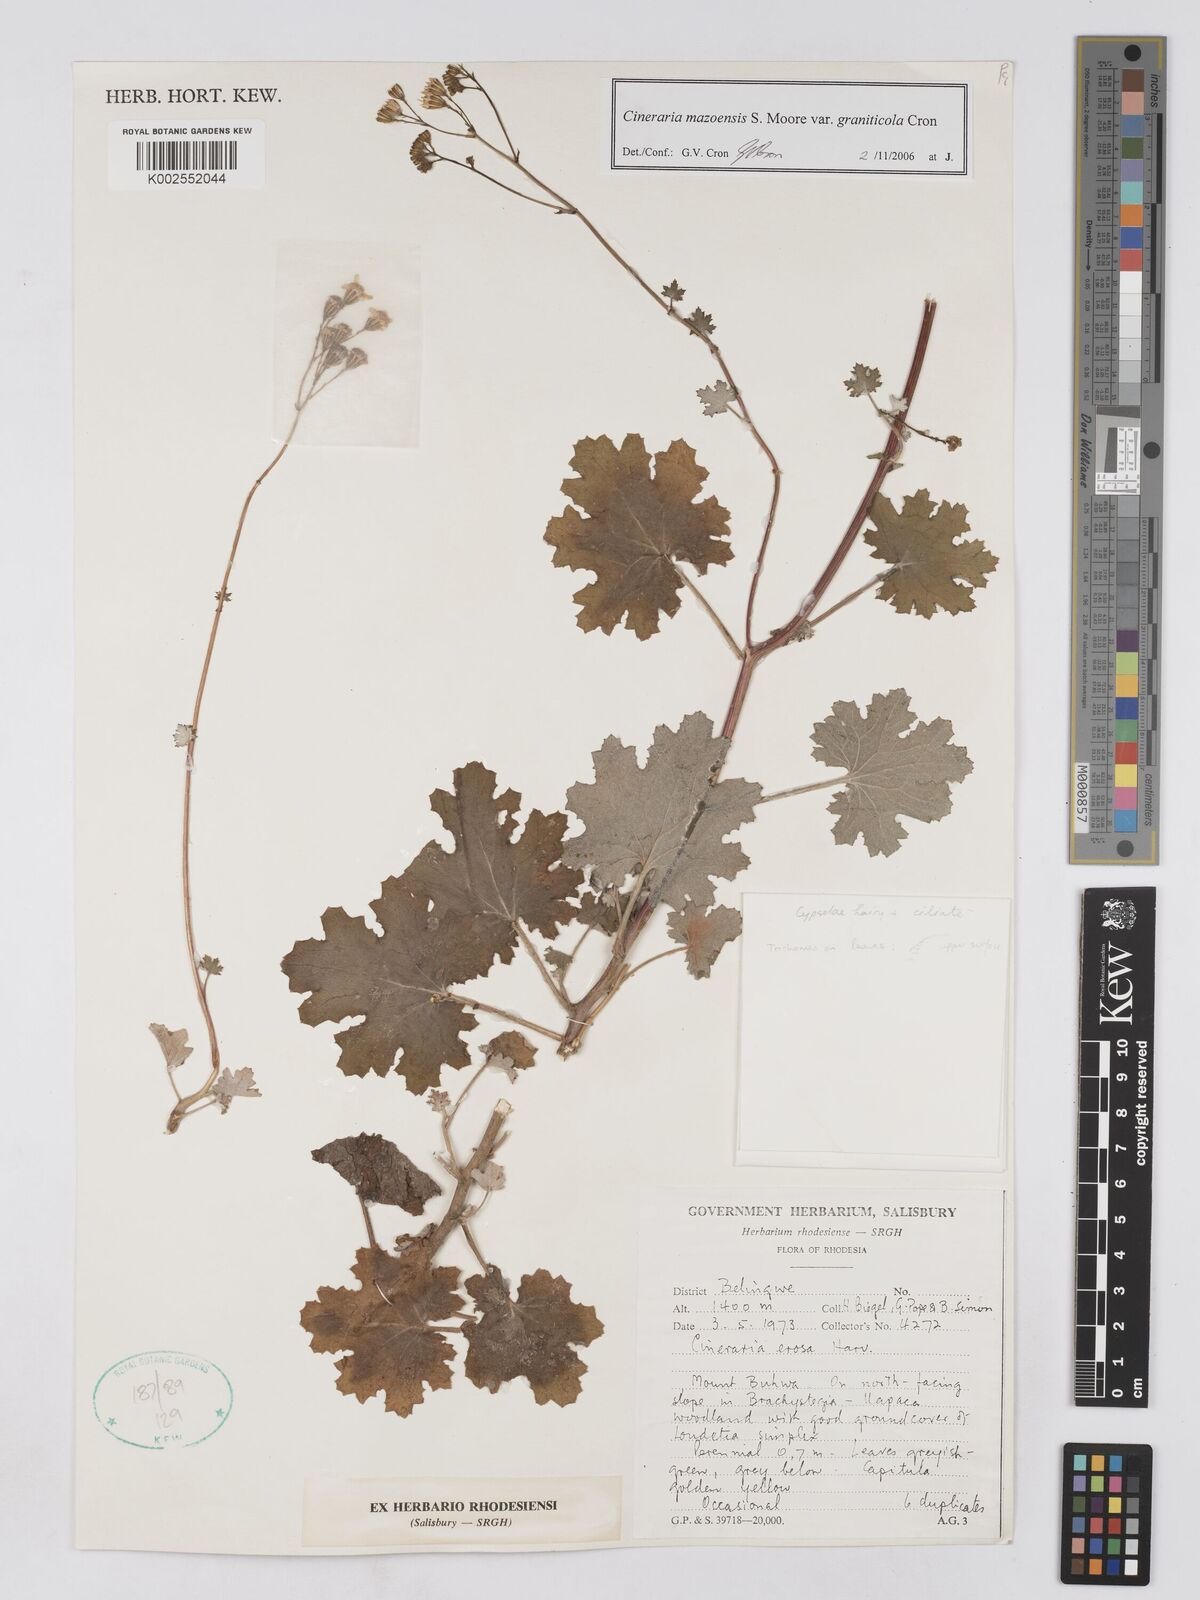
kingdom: Plantae
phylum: Tracheophyta
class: Magnoliopsida
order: Asterales
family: Asteraceae
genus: Cineraria
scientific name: Cineraria mazoensis
